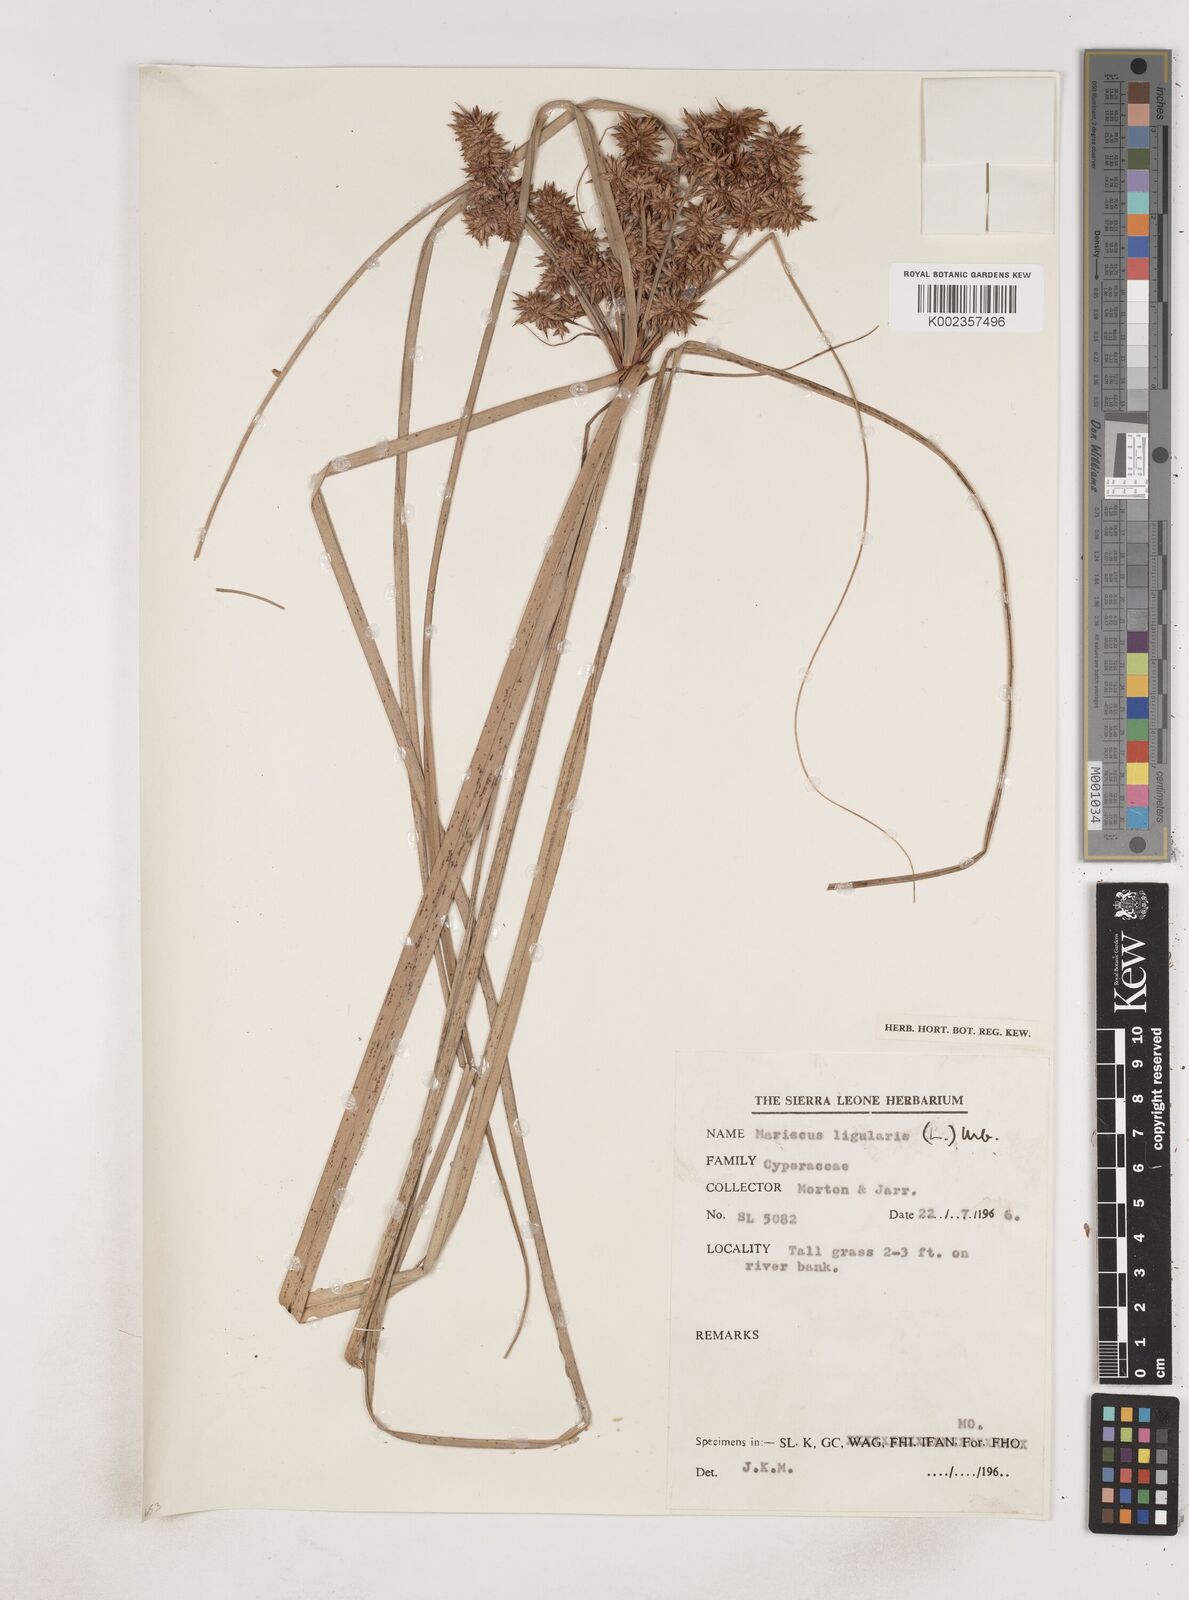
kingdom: Plantae
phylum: Tracheophyta
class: Liliopsida
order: Poales
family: Cyperaceae
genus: Cyperus
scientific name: Cyperus ligularis
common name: Swamp flat sedge
